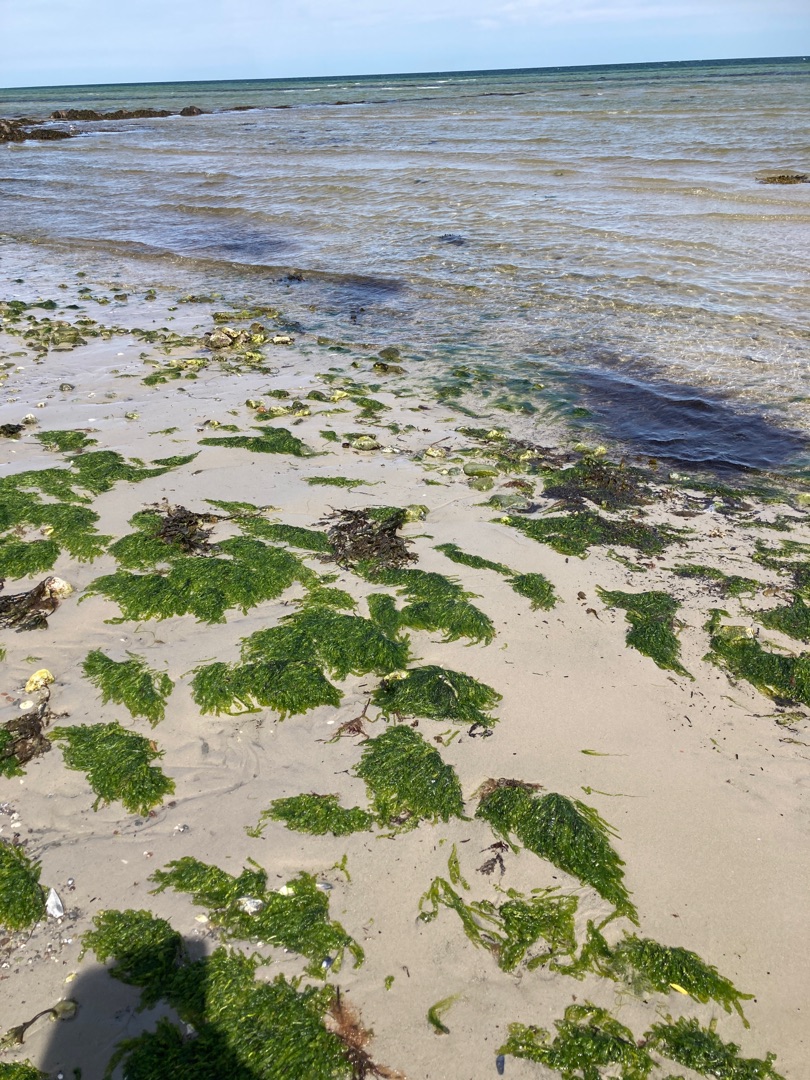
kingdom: Plantae
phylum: Chlorophyta
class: Ulvophyceae
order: Ulvales
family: Ulvaceae
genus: Ulva
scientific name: Ulva
